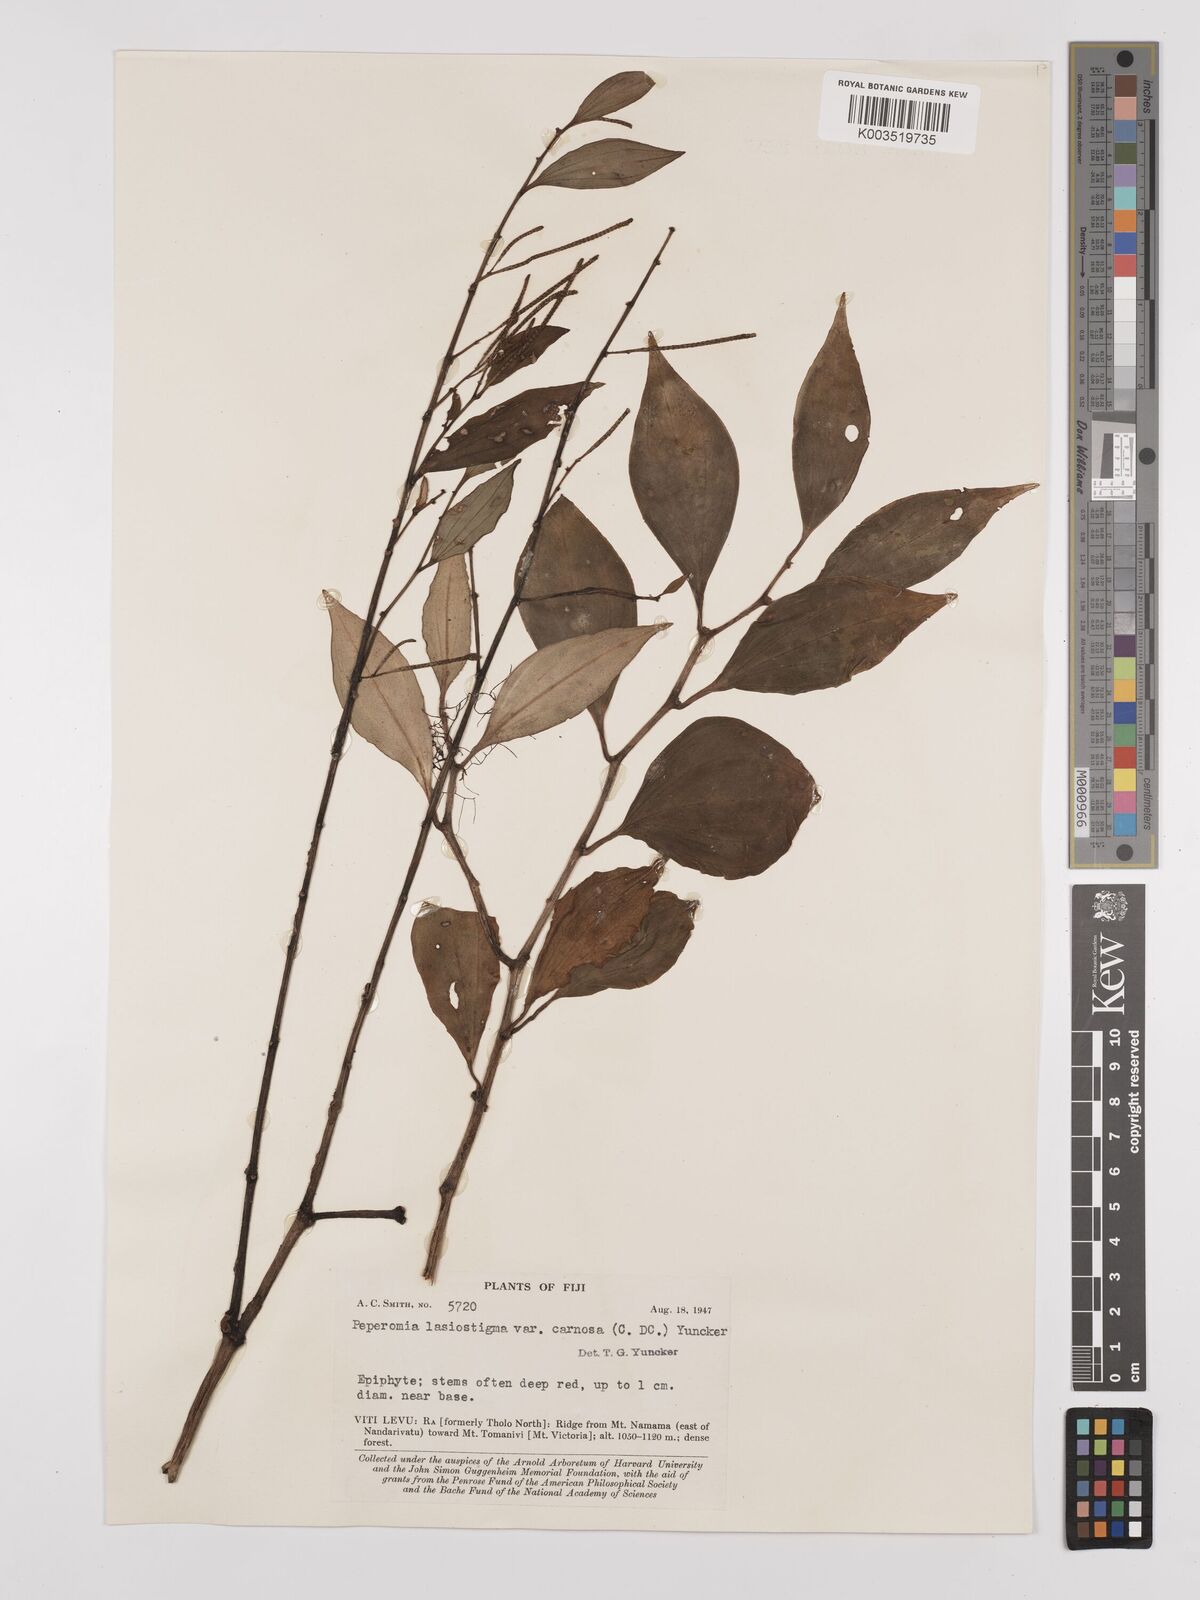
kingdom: Plantae
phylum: Tracheophyta
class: Magnoliopsida
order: Piperales
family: Piperaceae
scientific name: Piperaceae
